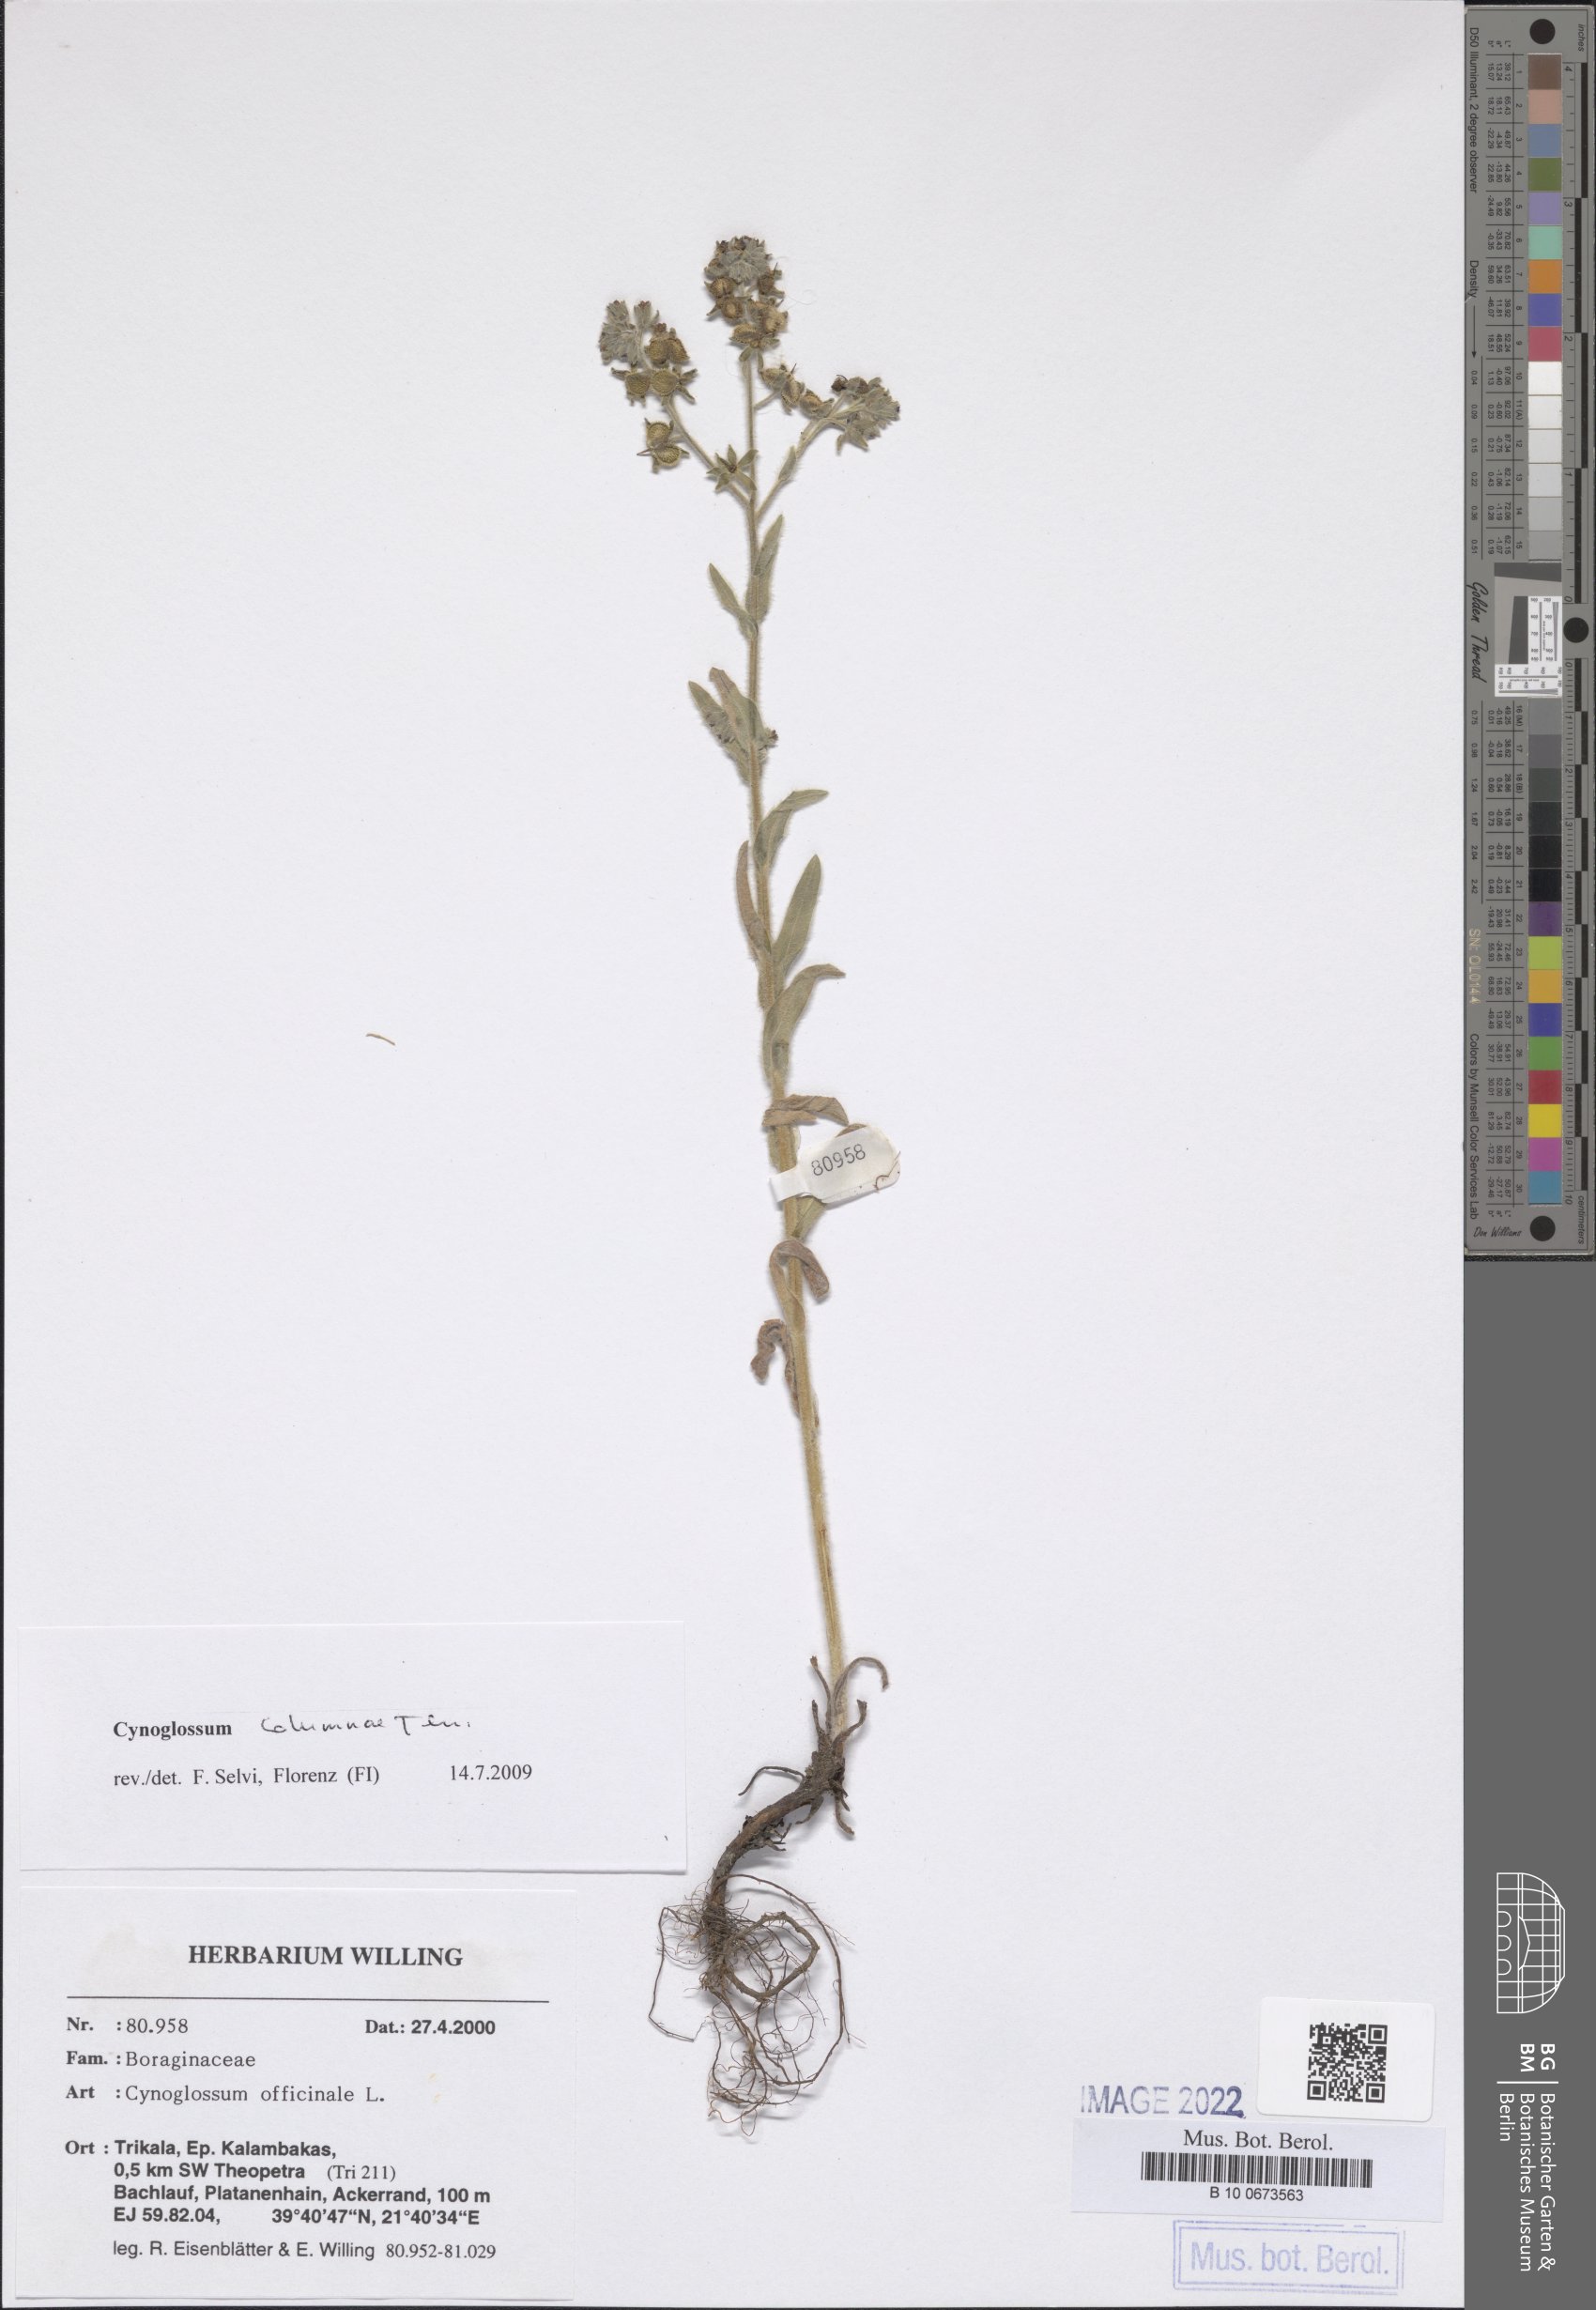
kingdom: Plantae
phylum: Tracheophyta
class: Magnoliopsida
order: Boraginales
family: Boraginaceae
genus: Rindera
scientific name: Rindera columnae
